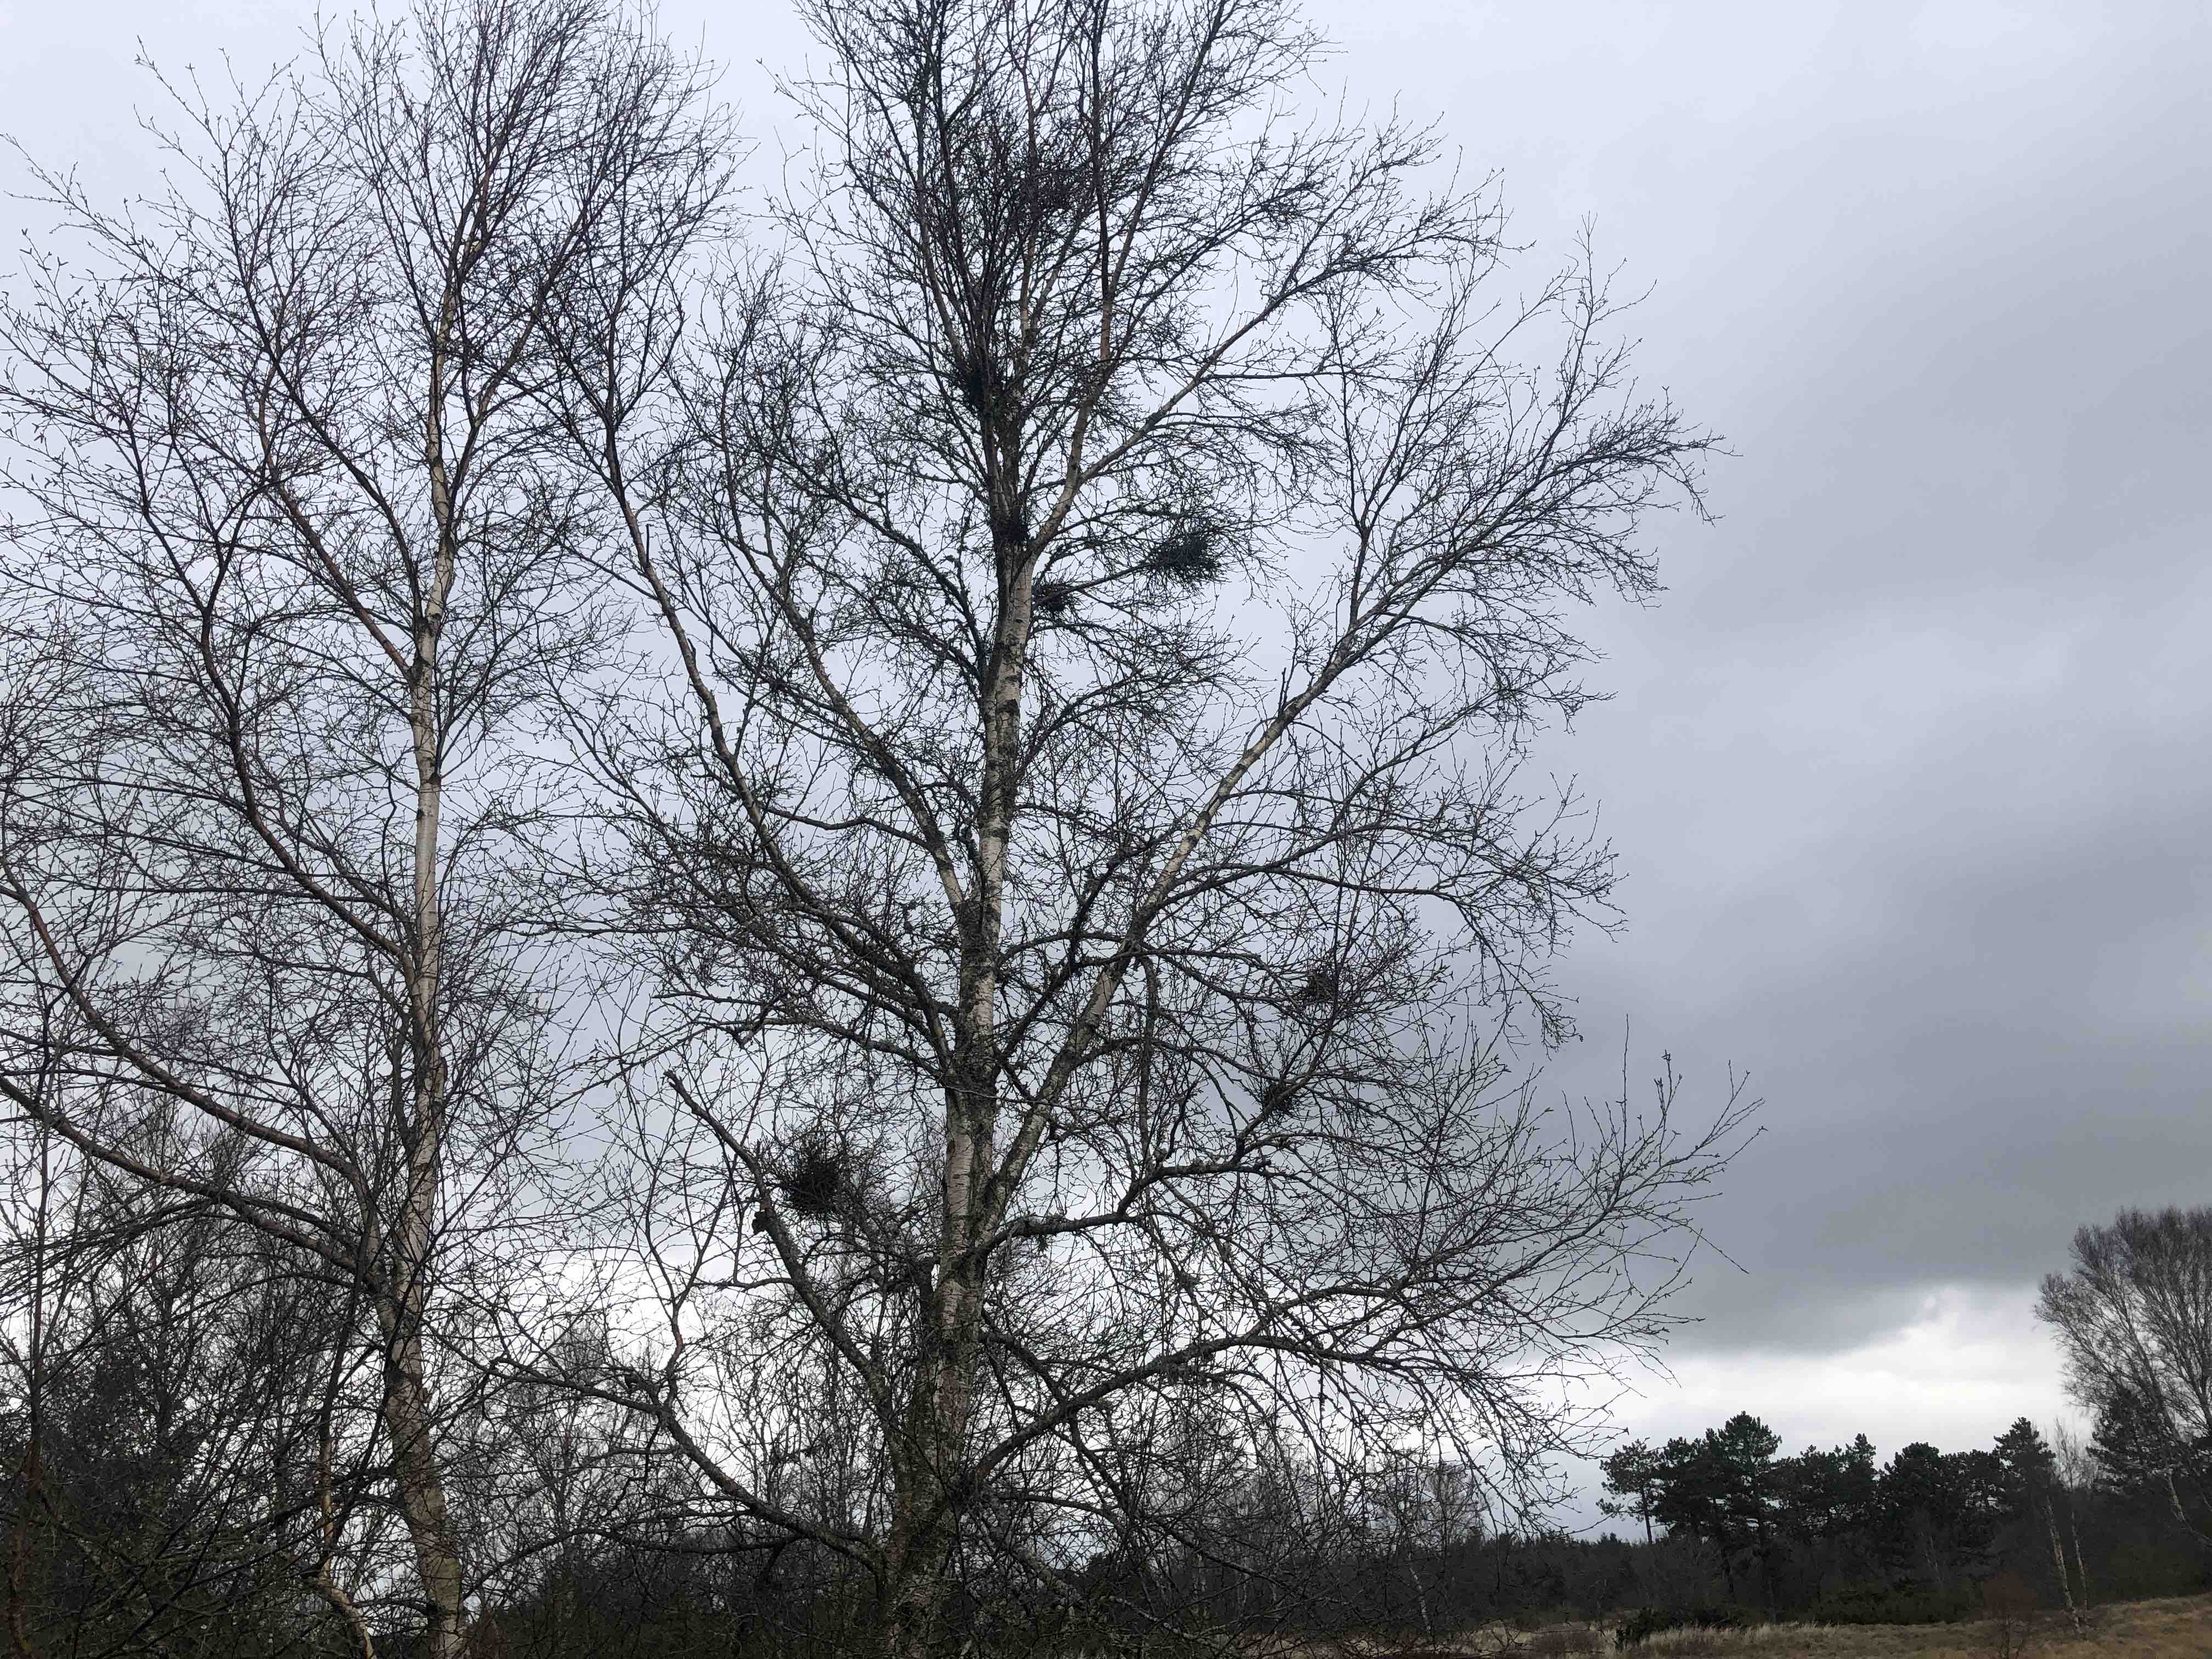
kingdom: Fungi
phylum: Ascomycota
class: Taphrinomycetes
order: Taphrinales
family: Taphrinaceae
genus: Taphrina
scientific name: Taphrina betulina
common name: hekse-sækdug
